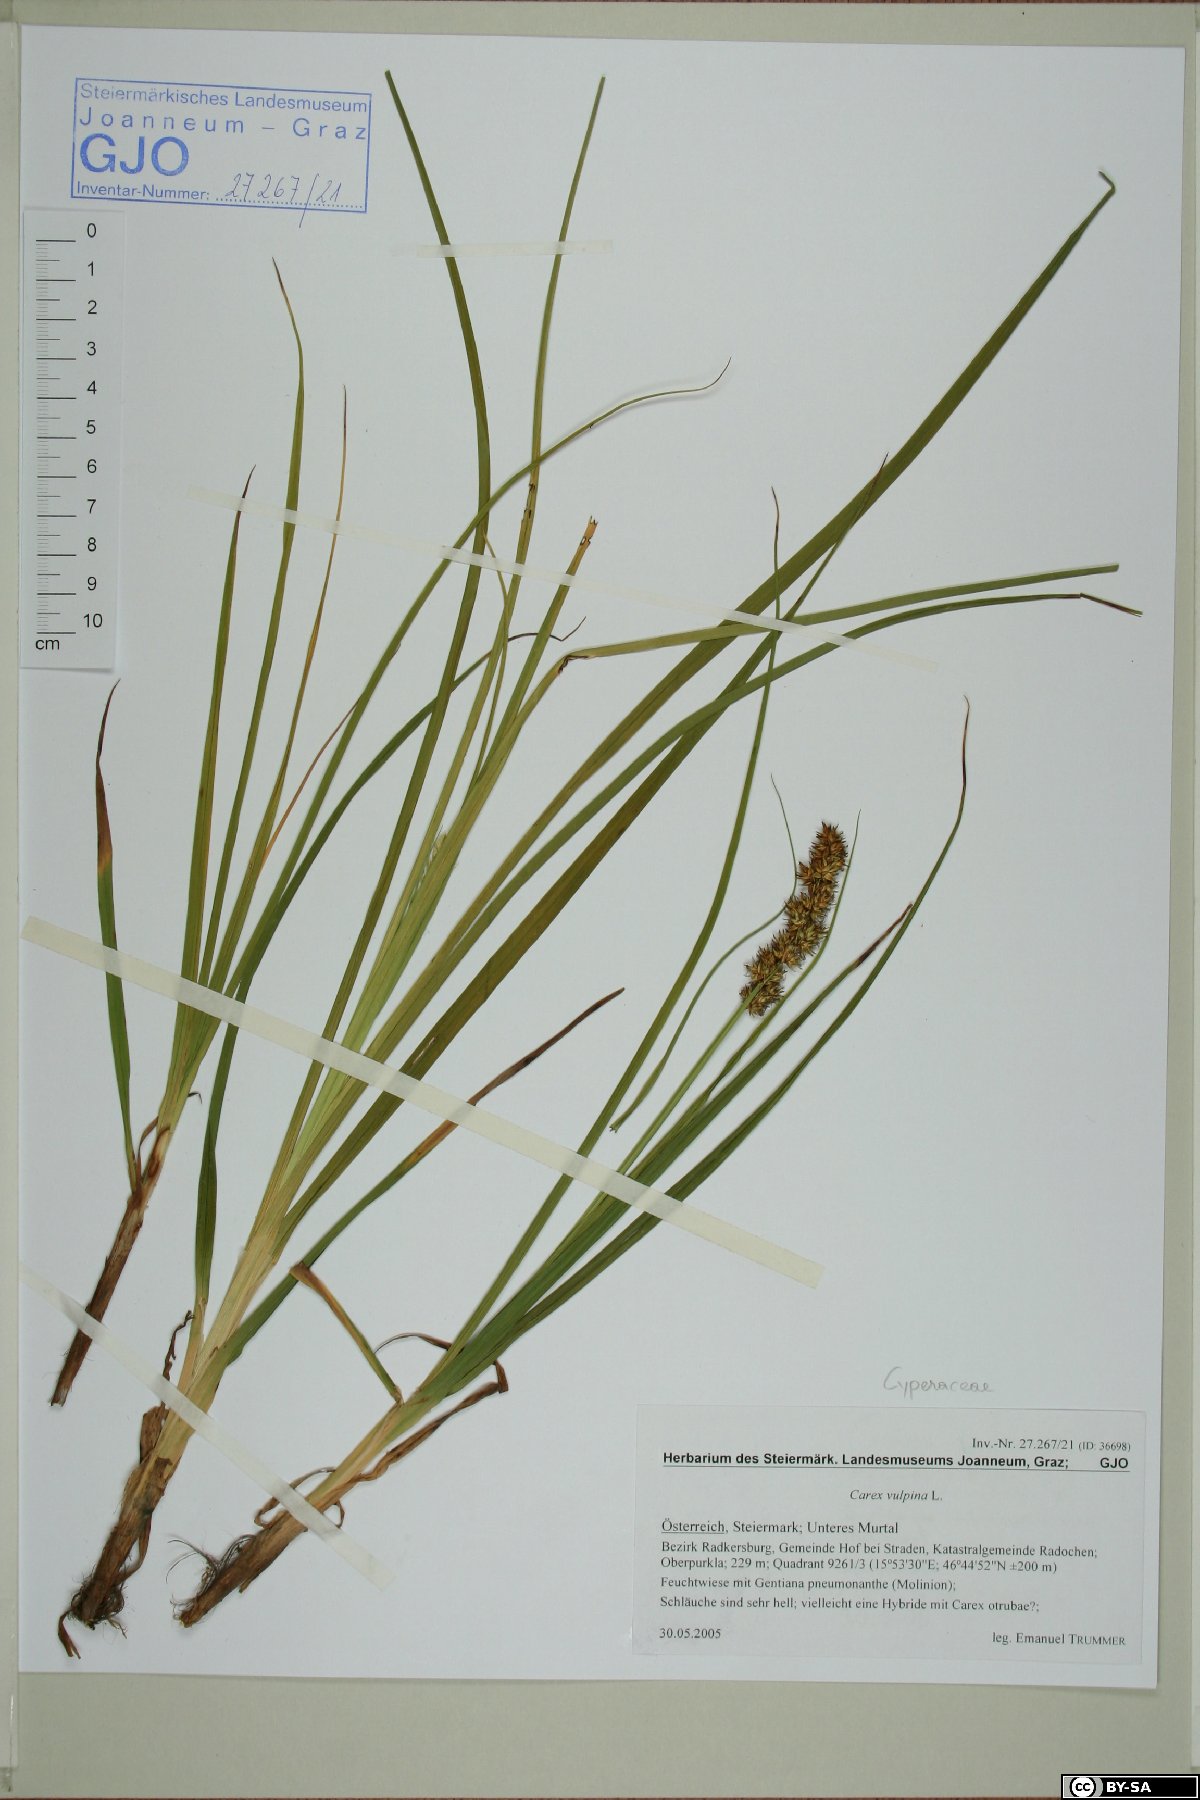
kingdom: Plantae
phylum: Tracheophyta
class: Liliopsida
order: Poales
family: Cyperaceae
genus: Carex
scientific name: Carex vulpina
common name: True fox-sedge
